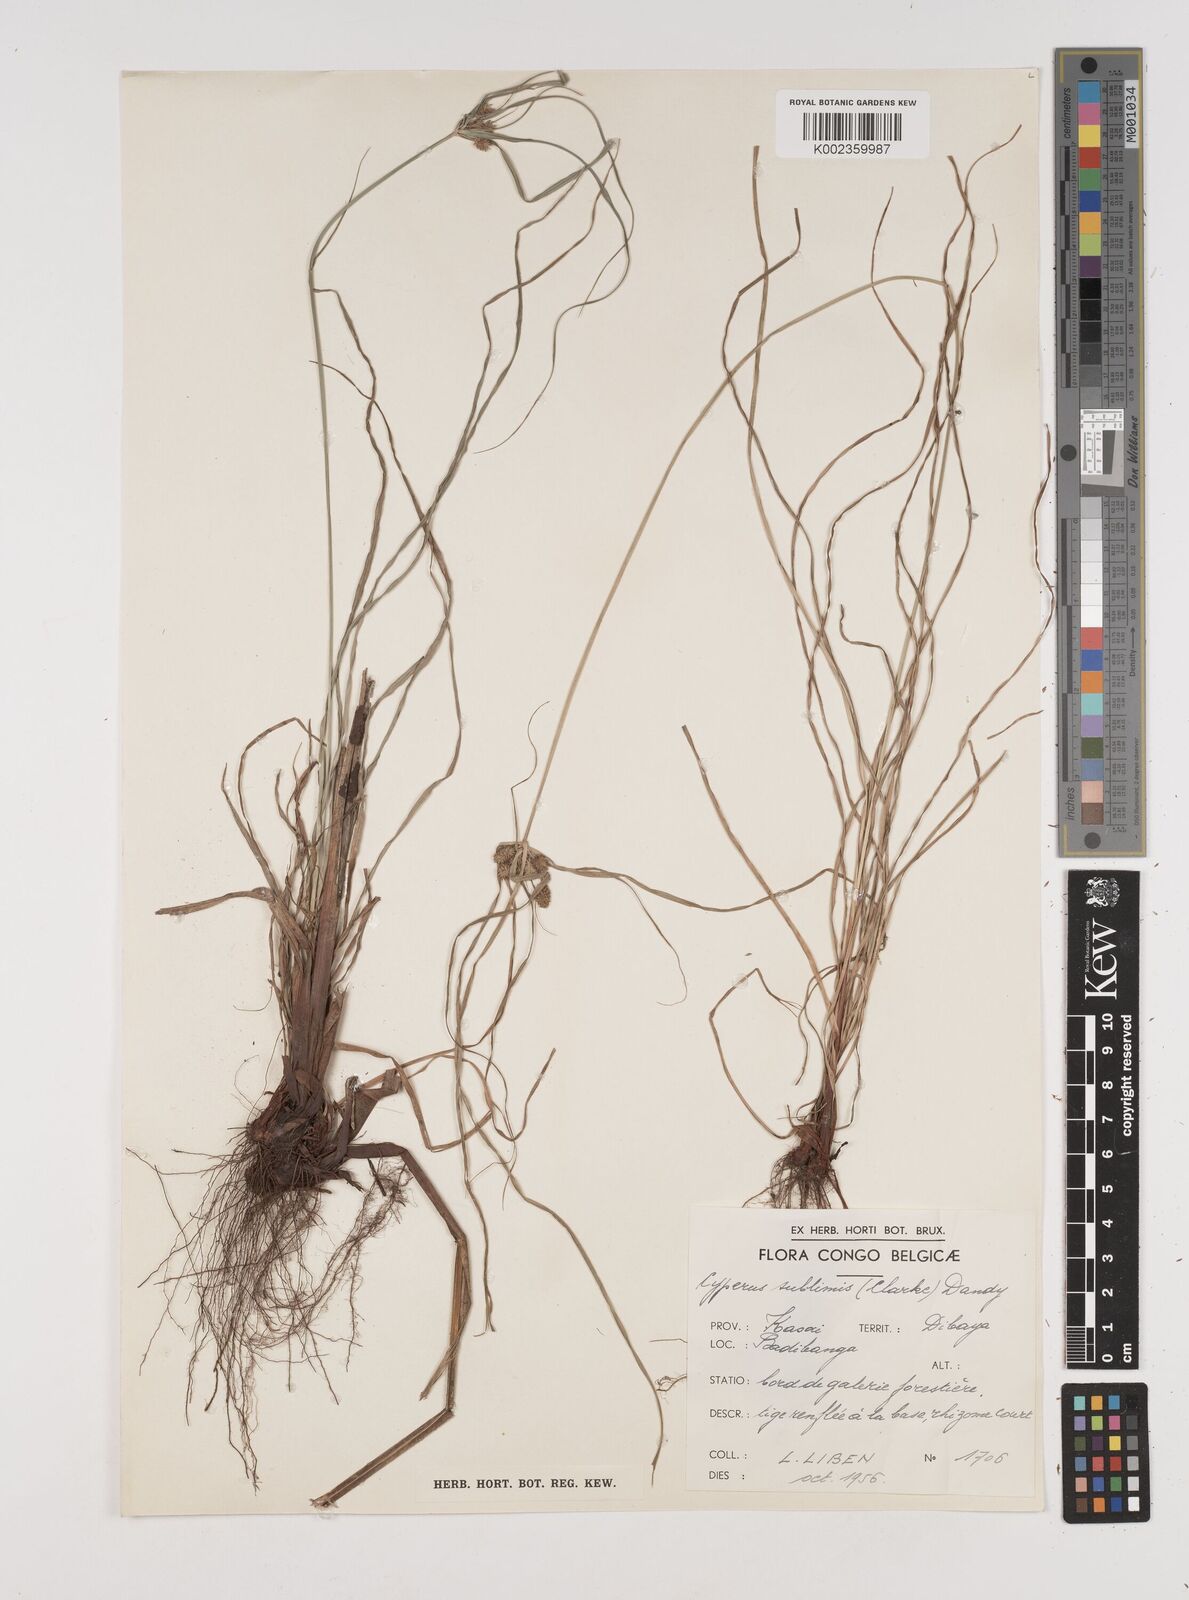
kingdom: Plantae
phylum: Tracheophyta
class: Liliopsida
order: Poales
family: Cyperaceae
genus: Cyperus
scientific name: Cyperus cyperoides
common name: Pacific island flat sedge
